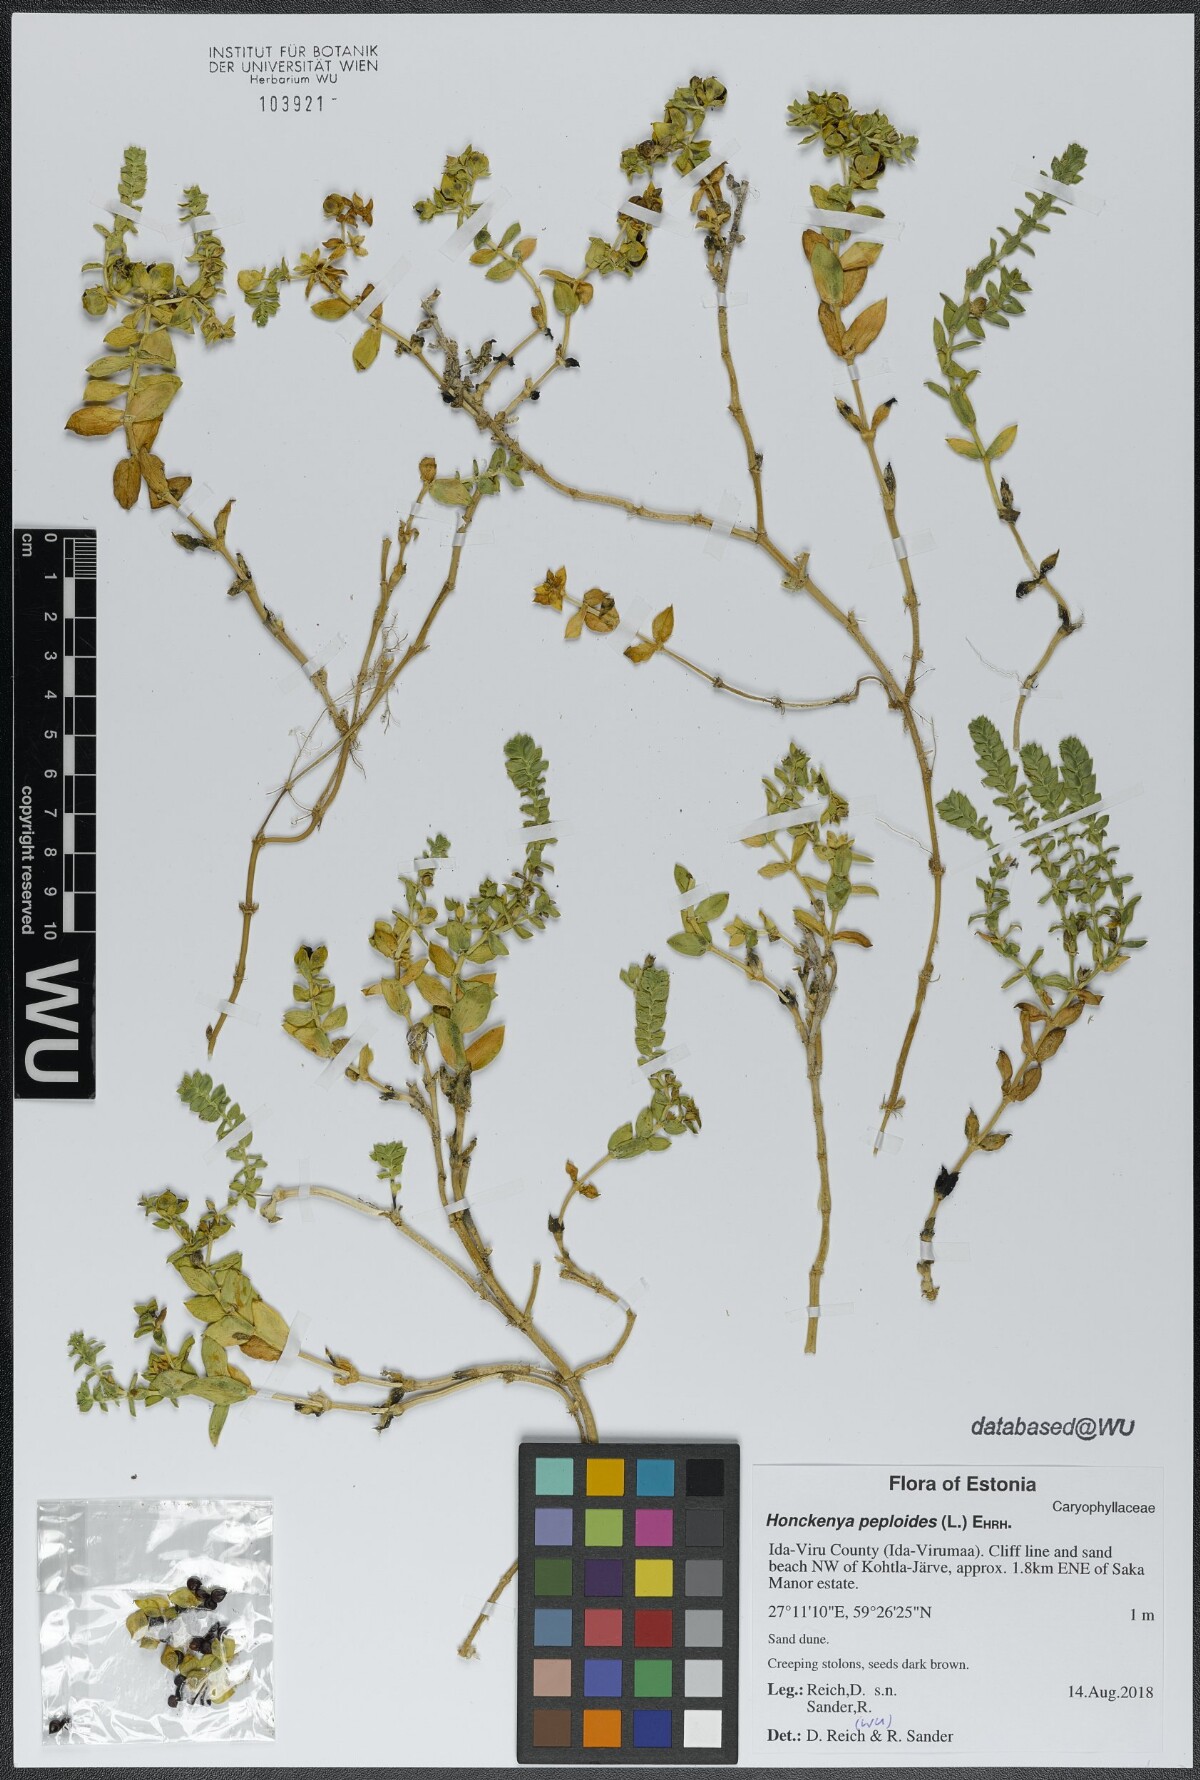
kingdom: Plantae
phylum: Tracheophyta
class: Magnoliopsida
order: Caryophyllales
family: Caryophyllaceae
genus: Honckenya
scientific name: Honckenya peploides
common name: Sea sandwort
